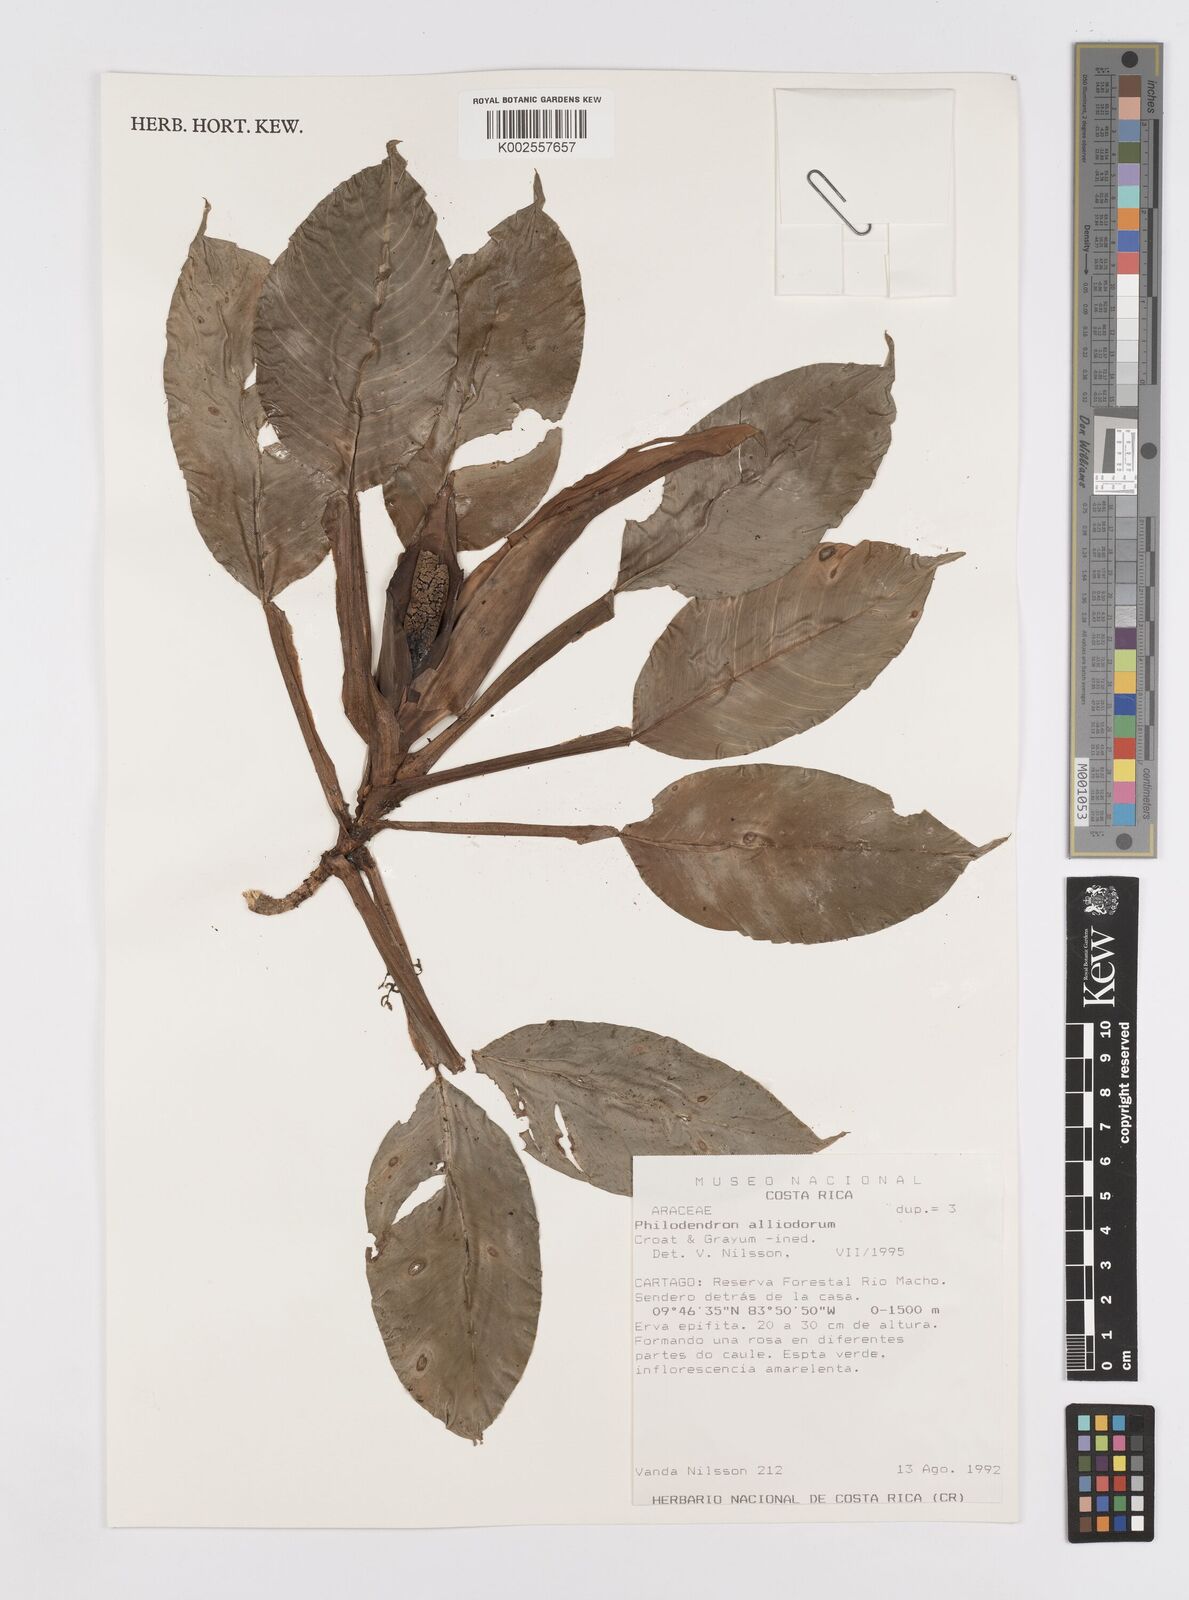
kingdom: Plantae
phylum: Tracheophyta
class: Liliopsida
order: Alismatales
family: Araceae
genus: Philodendron
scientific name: Philodendron alliodorum
